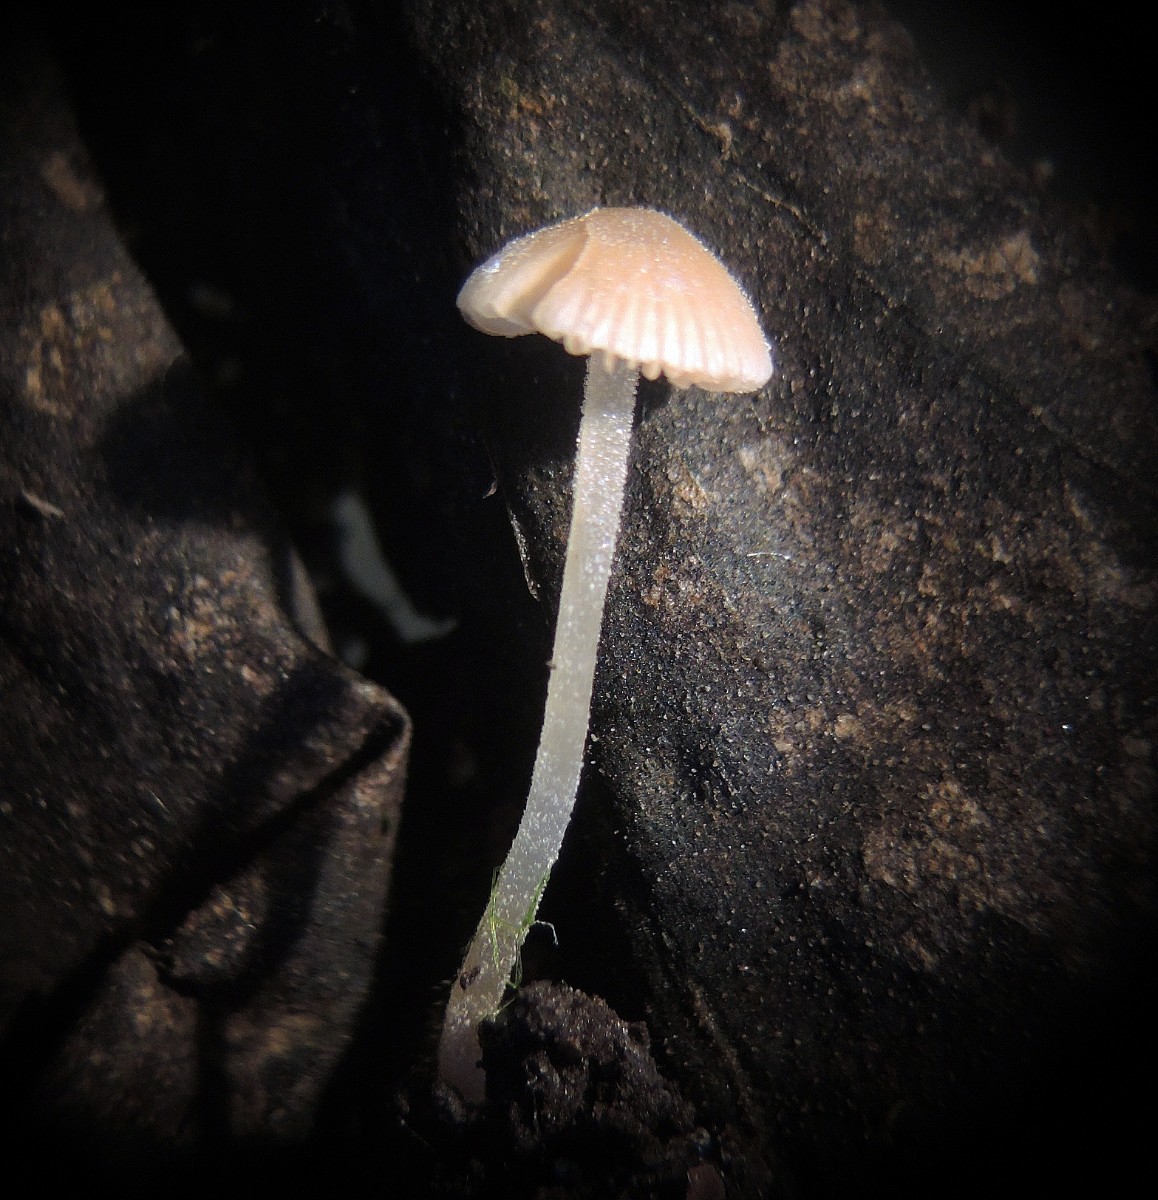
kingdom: Fungi
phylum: Basidiomycota
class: Agaricomycetes
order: Agaricales
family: Bolbitiaceae
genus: Conocybe
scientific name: Conocybe mairei
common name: spinkel dansehat
